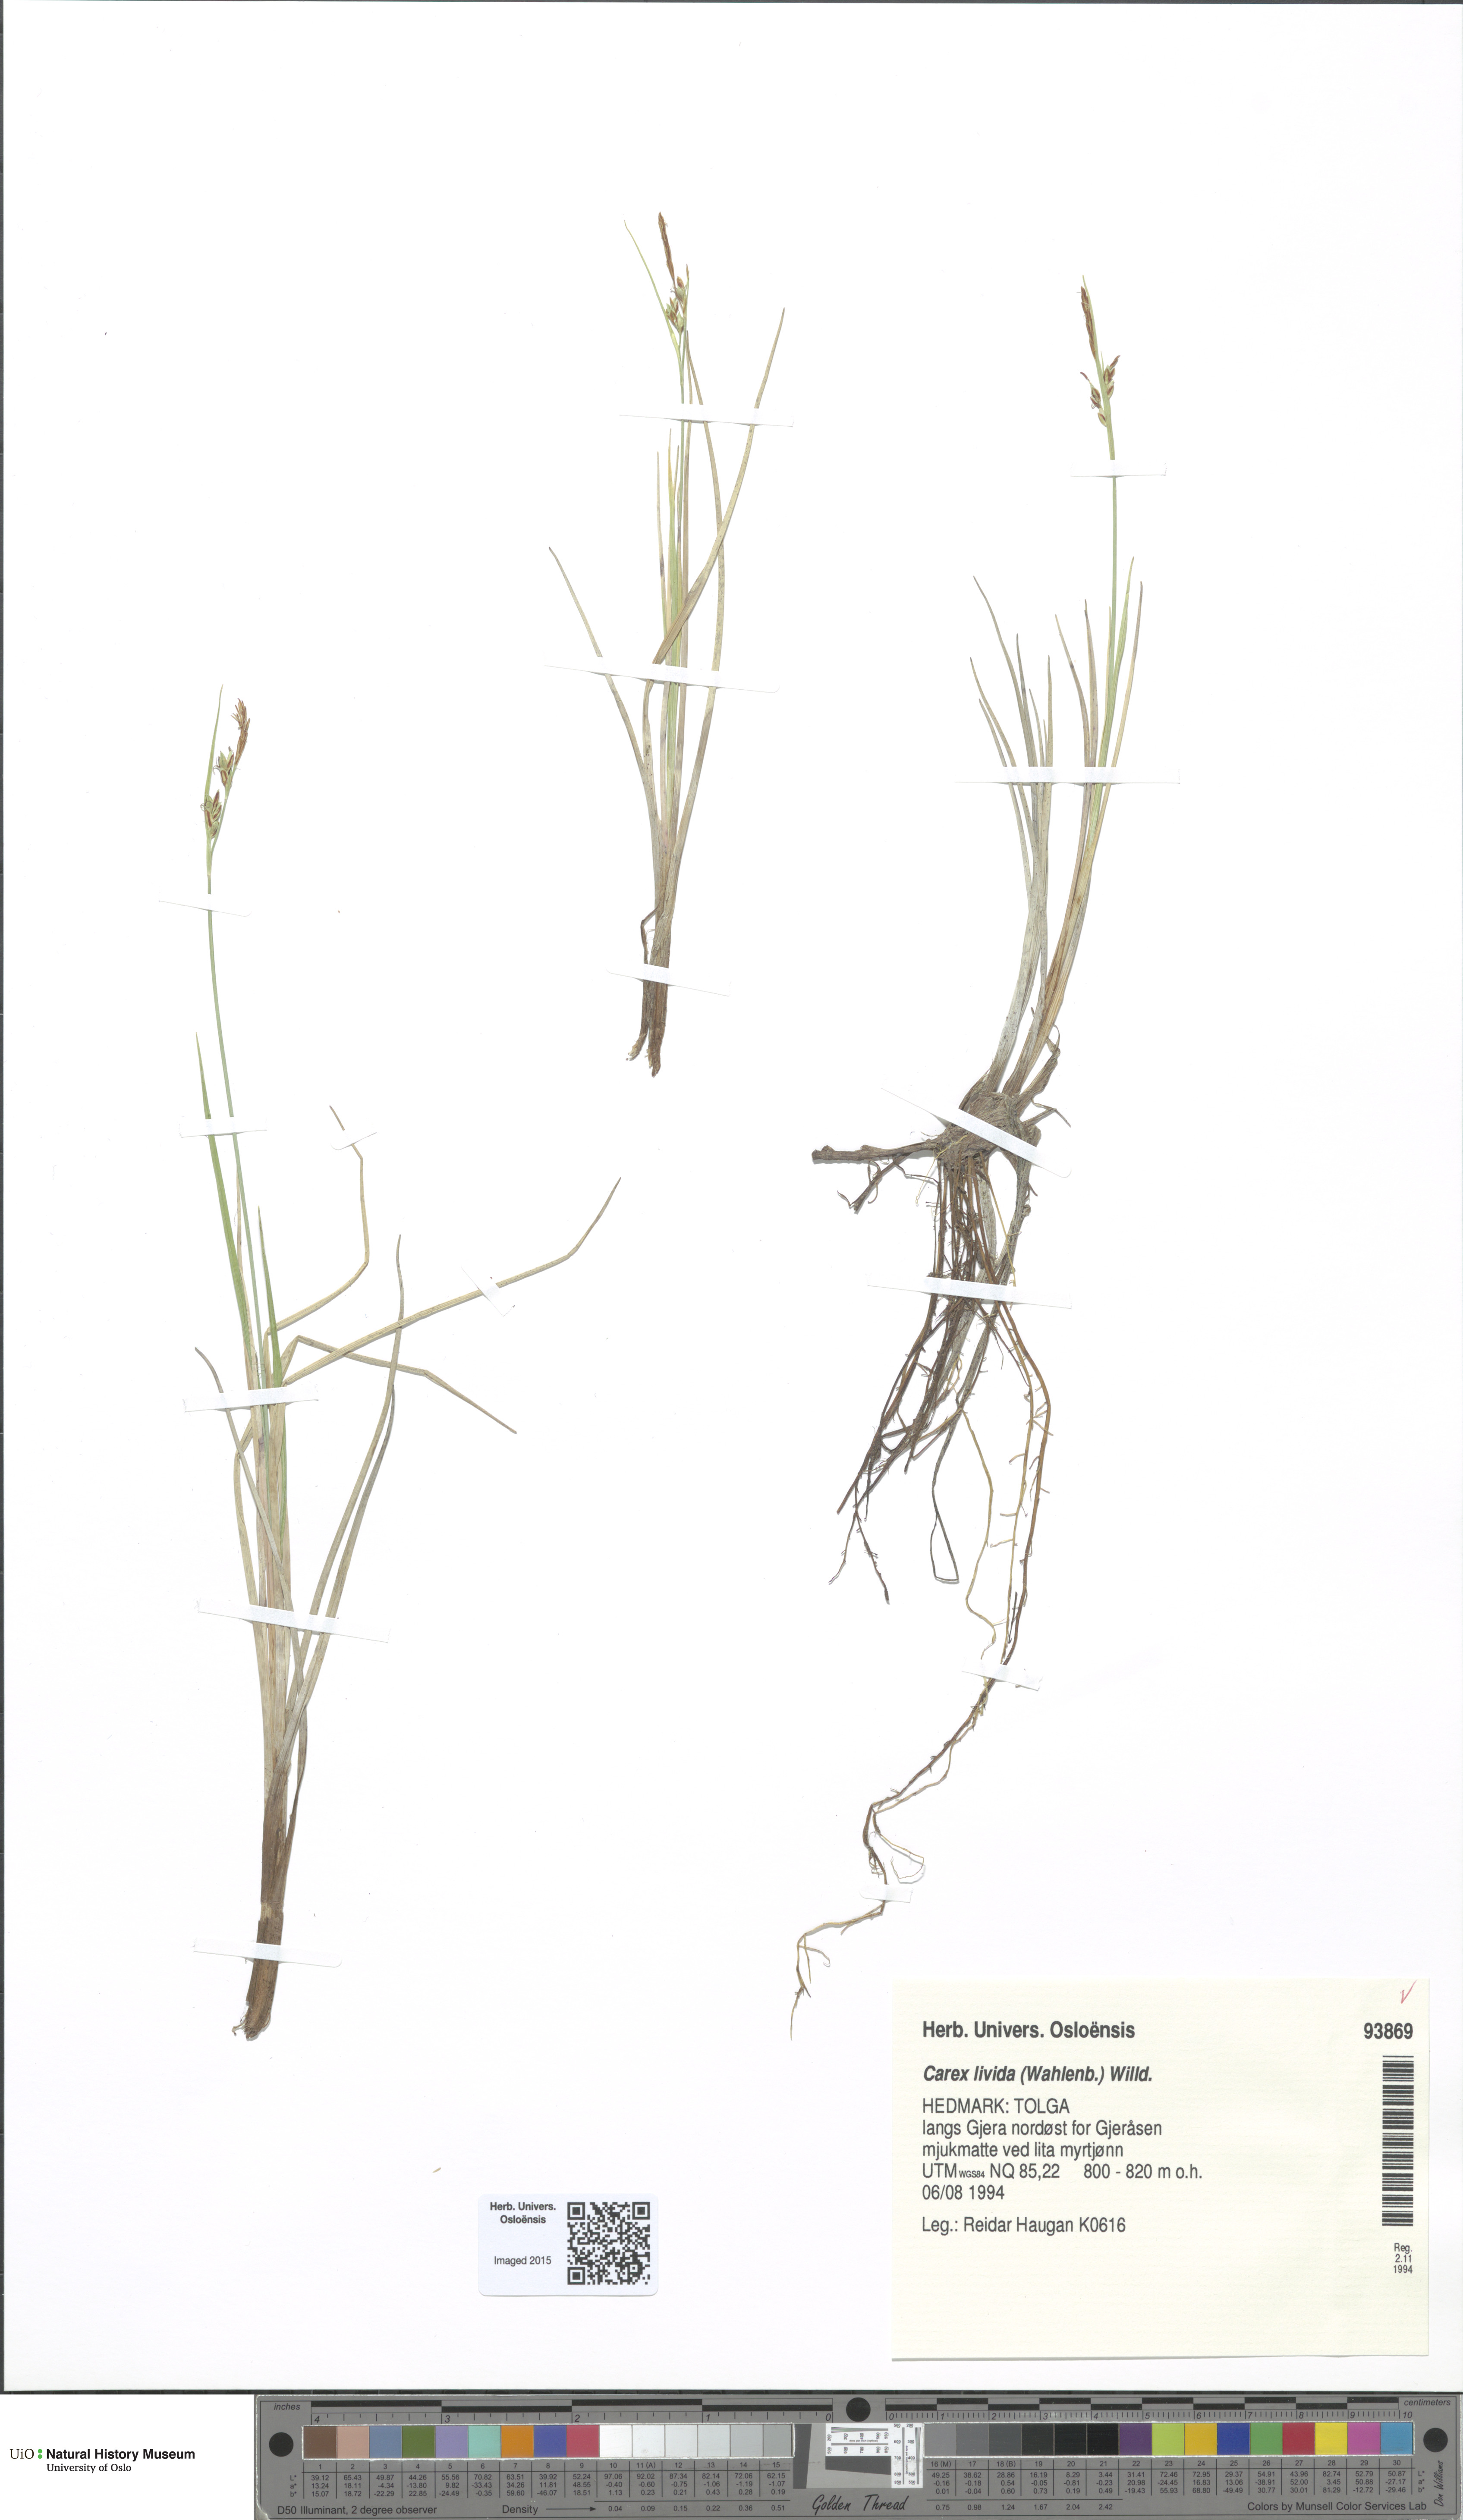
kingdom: Plantae
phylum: Tracheophyta
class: Liliopsida
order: Poales
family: Cyperaceae
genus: Carex
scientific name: Carex livida
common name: Livid sedge
